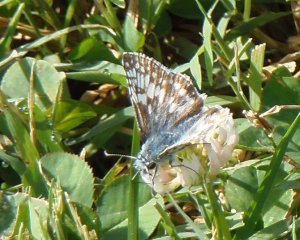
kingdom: Animalia
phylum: Arthropoda
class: Insecta
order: Lepidoptera
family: Hesperiidae
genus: Pyrgus
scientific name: Pyrgus communis
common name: Common Checkered-Skipper
